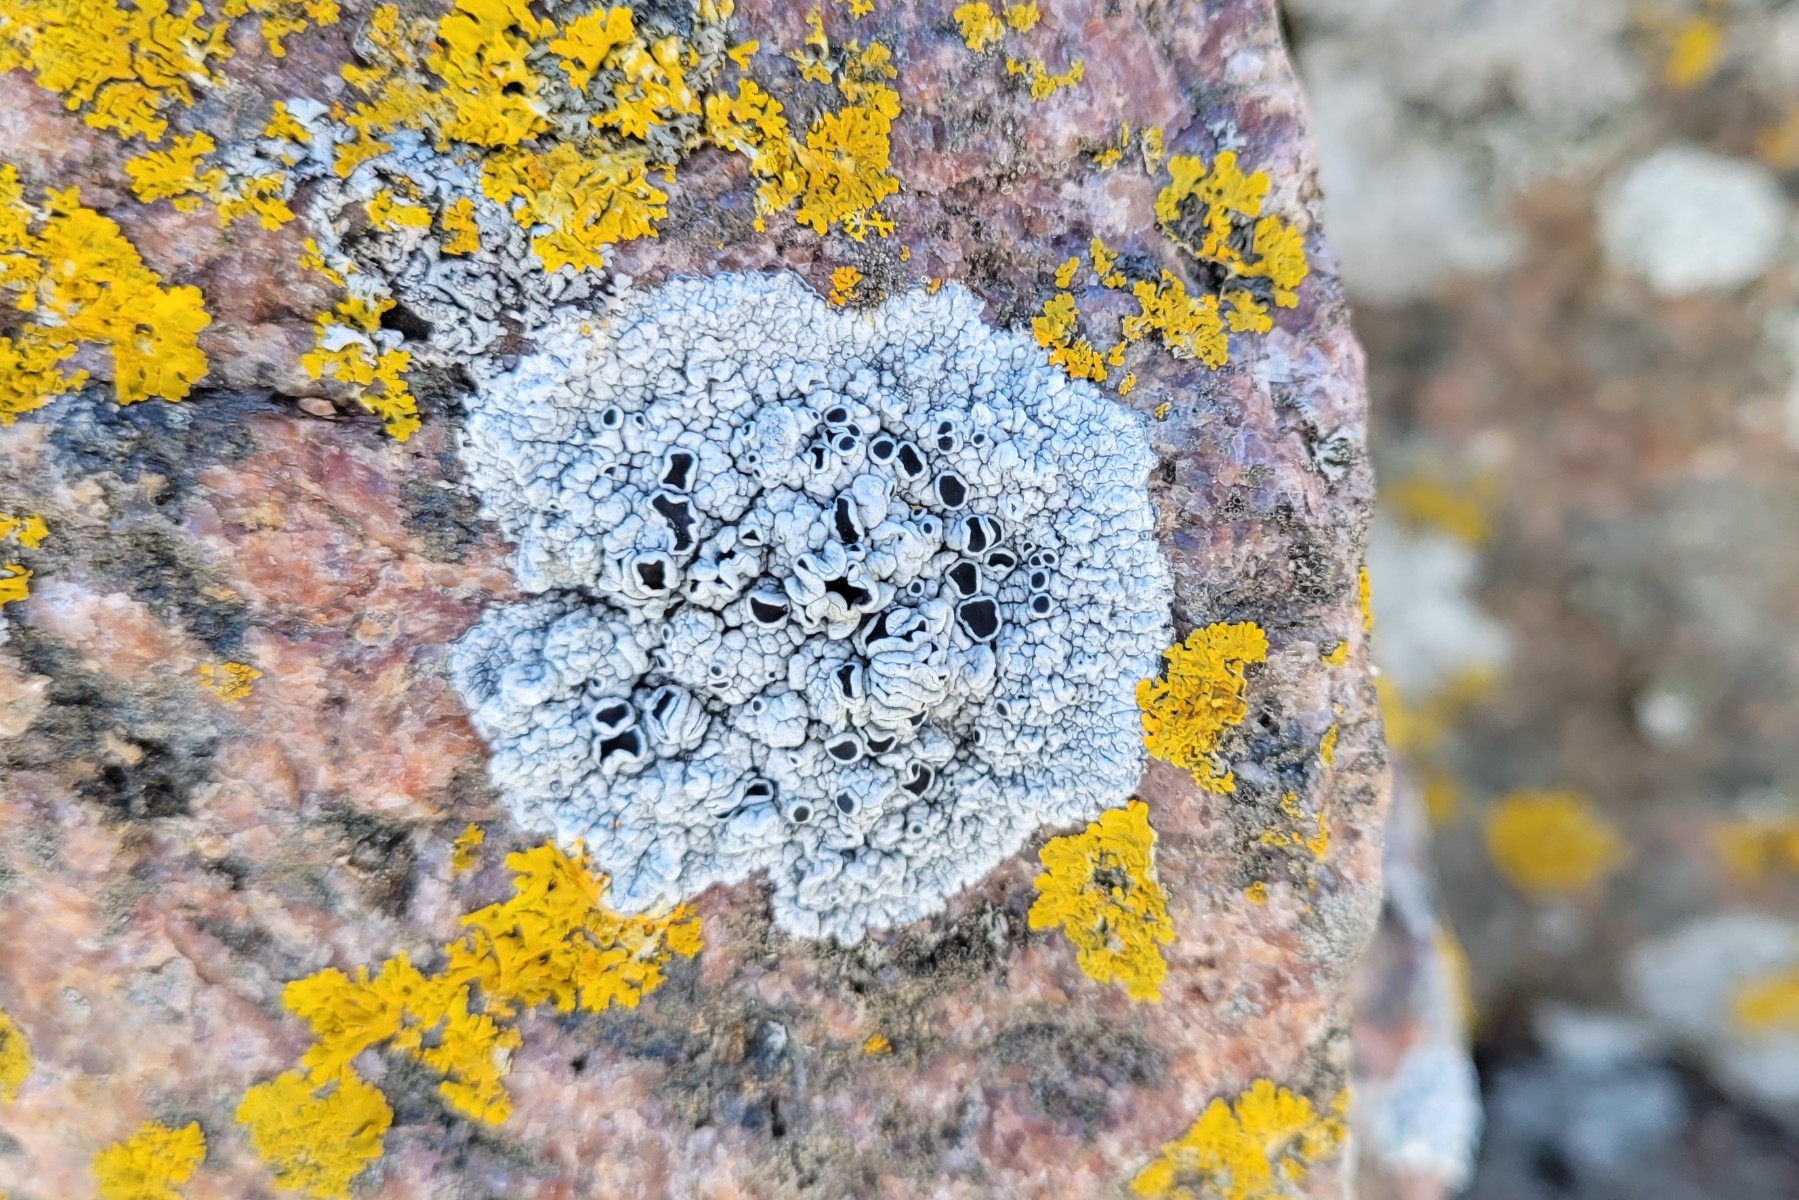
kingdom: Fungi
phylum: Ascomycota
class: Lecanoromycetes
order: Lecanorales
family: Tephromelataceae
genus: Tephromela
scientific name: Tephromela atra
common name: sortfrugtet kantskivelav
